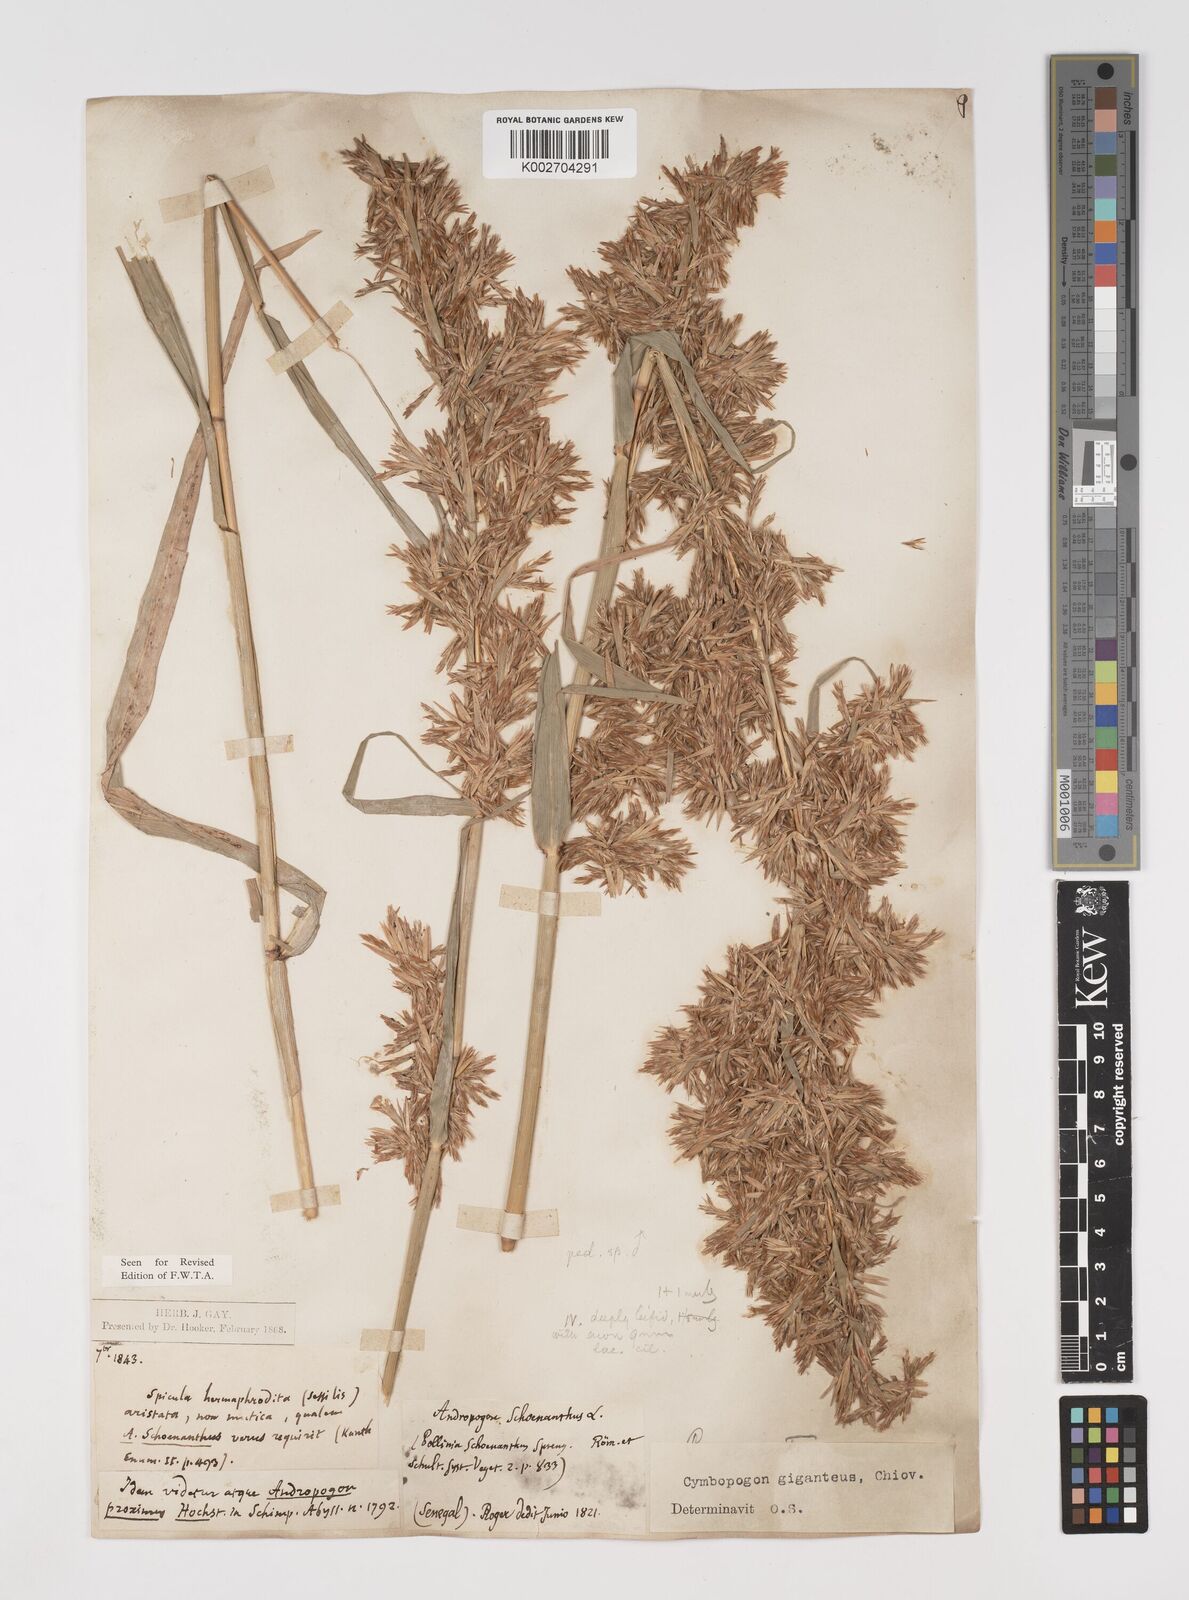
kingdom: Plantae
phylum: Tracheophyta
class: Liliopsida
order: Poales
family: Poaceae
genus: Cymbopogon
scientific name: Cymbopogon giganteus
